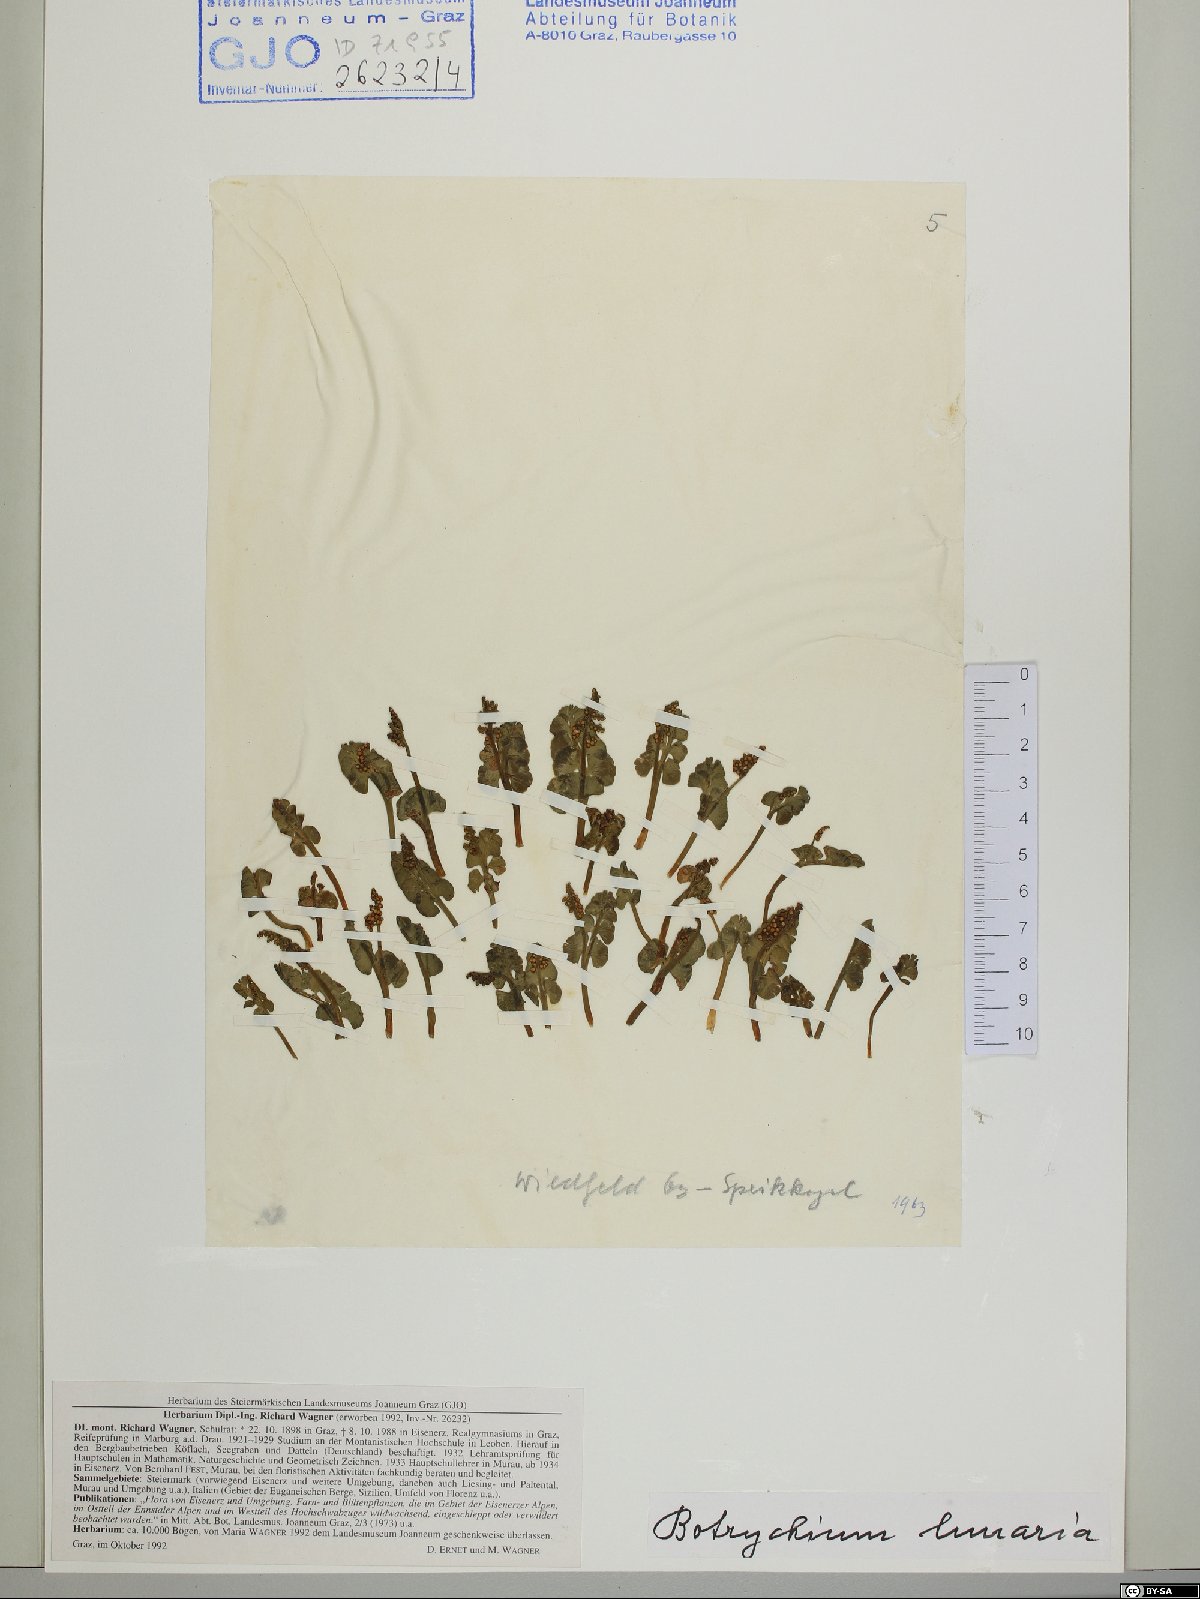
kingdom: Plantae
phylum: Tracheophyta
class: Polypodiopsida
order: Ophioglossales
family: Ophioglossaceae
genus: Botrychium
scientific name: Botrychium lunaria
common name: Moonwort
